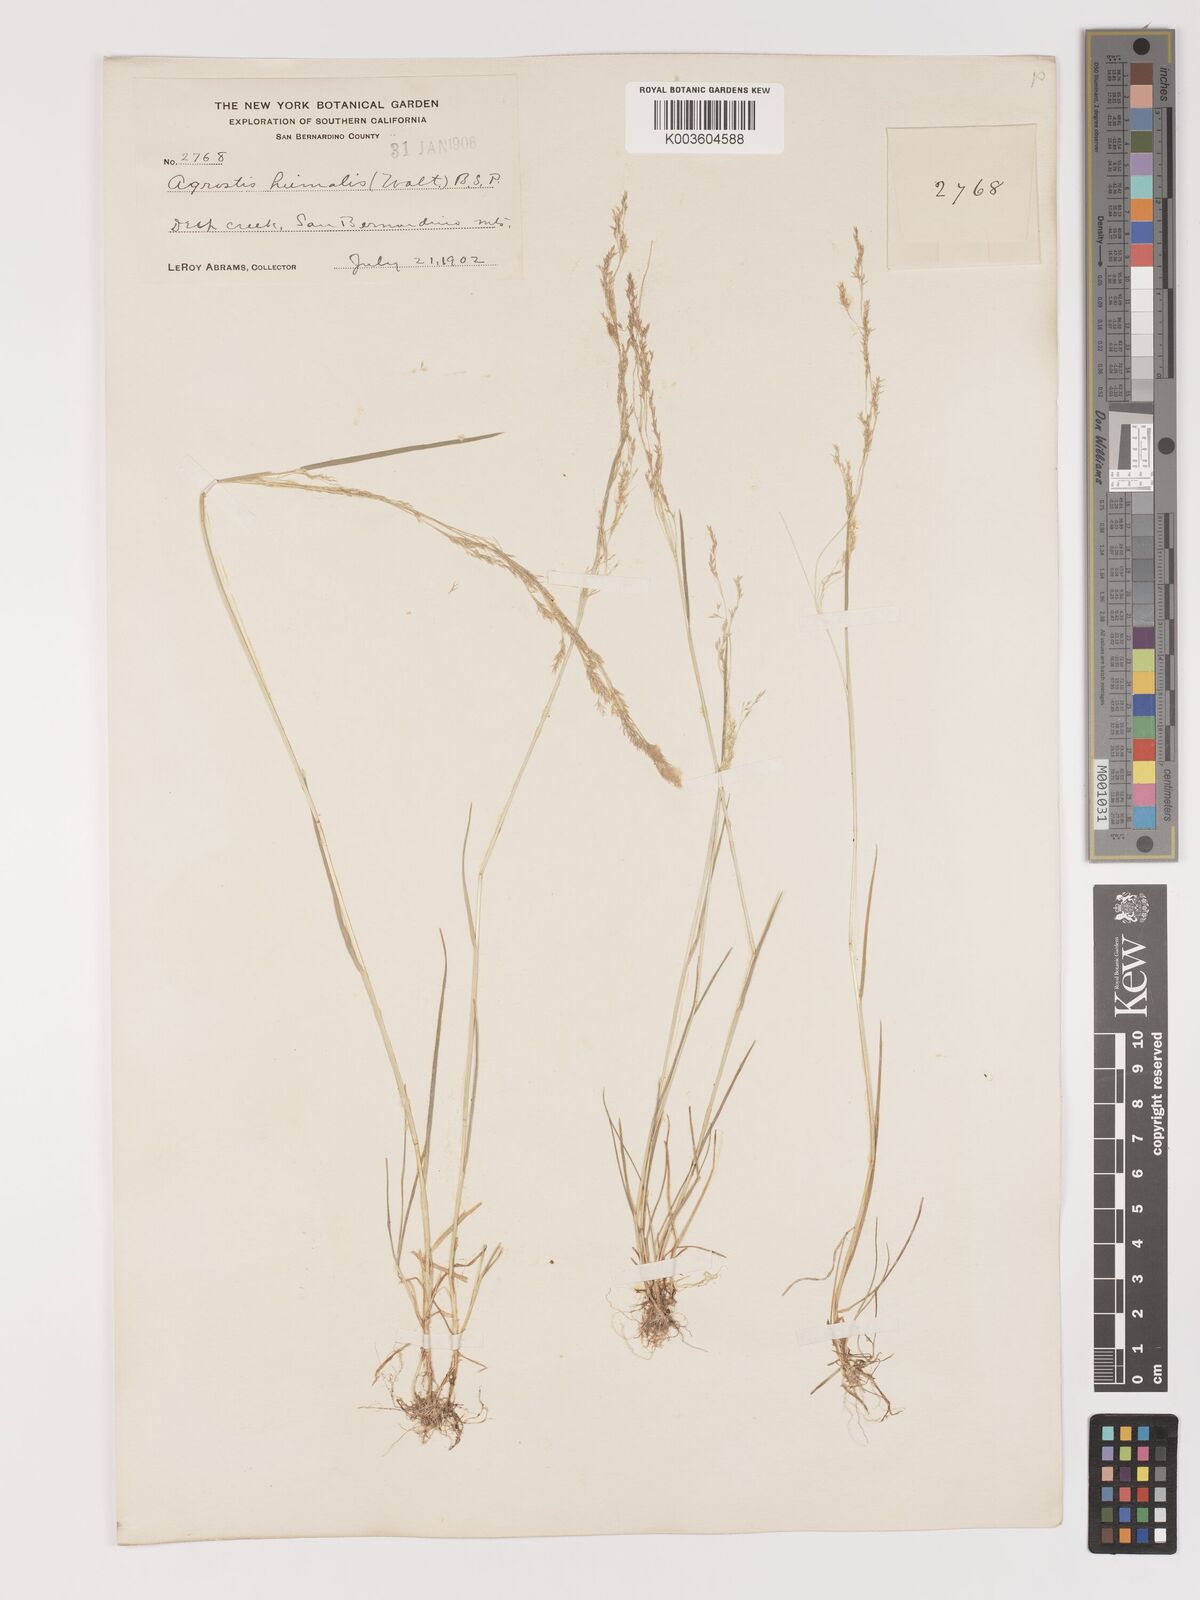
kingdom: Plantae
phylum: Tracheophyta
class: Liliopsida
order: Poales
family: Poaceae
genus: Agrostis
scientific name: Agrostis hyemalis
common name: Small bent
